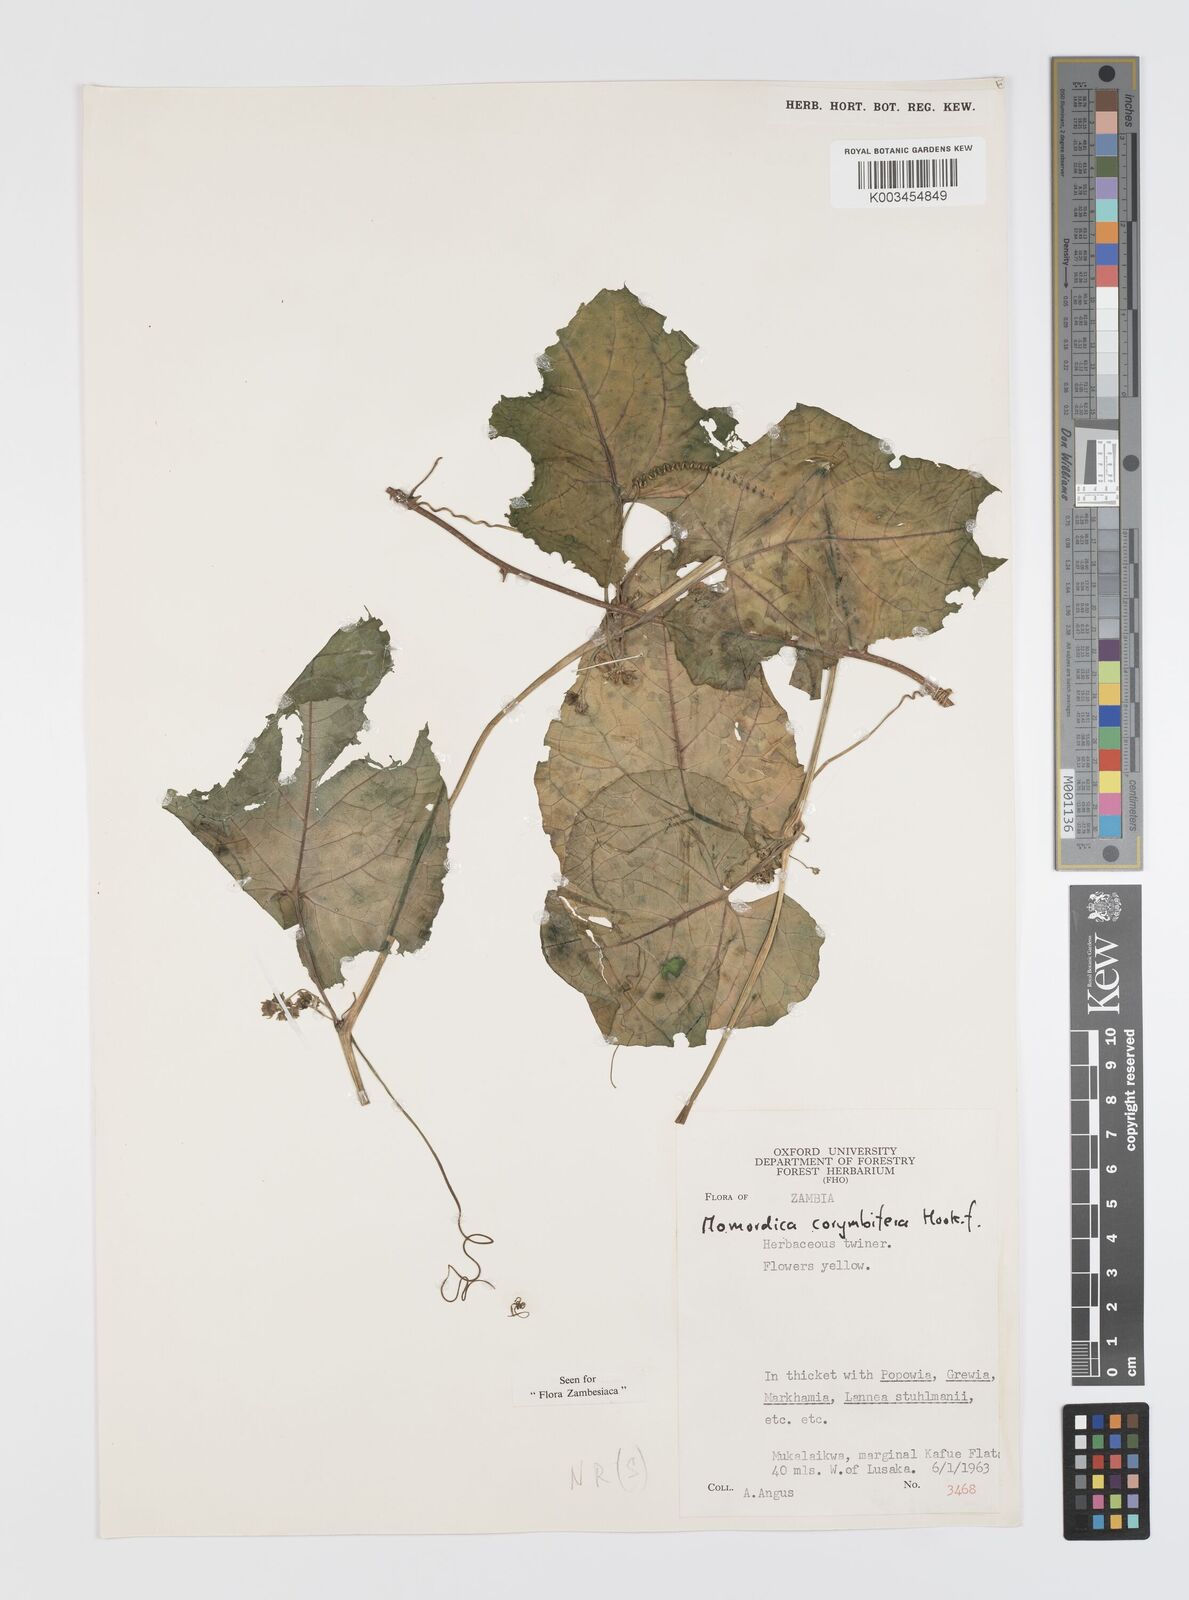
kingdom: Plantae
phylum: Tracheophyta
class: Magnoliopsida
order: Cucurbitales
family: Cucurbitaceae
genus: Momordica
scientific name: Momordica corymbifera
